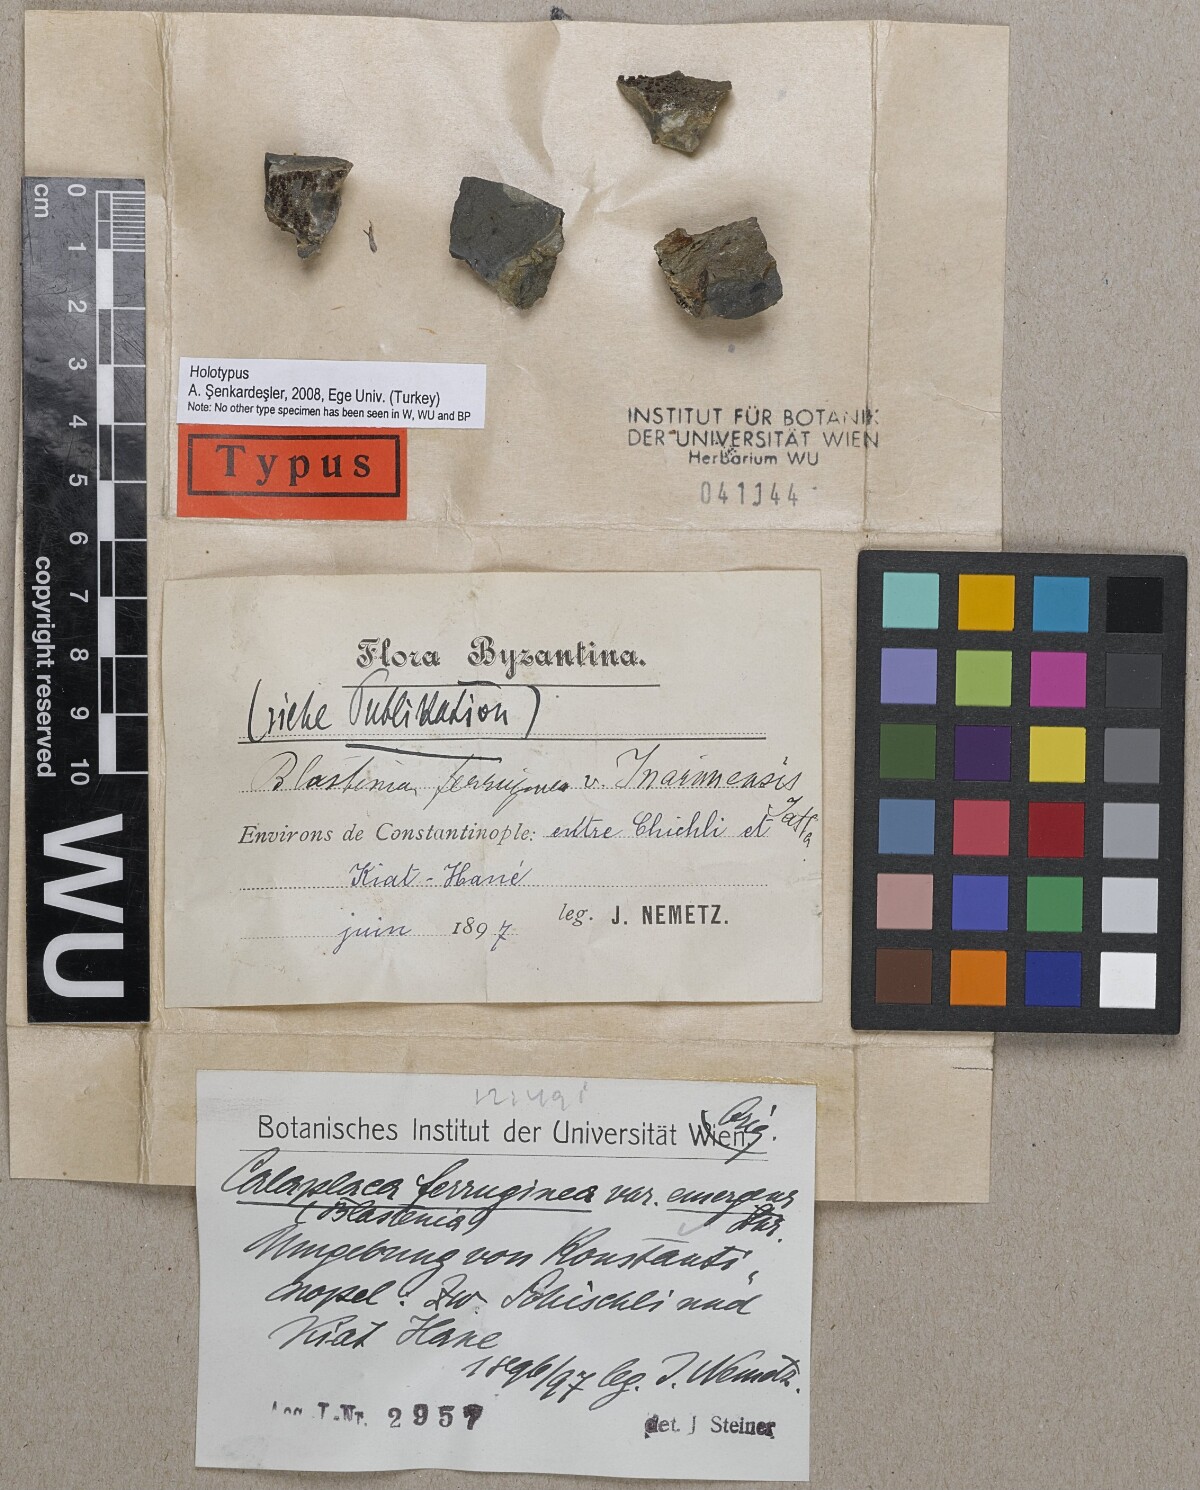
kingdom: Fungi
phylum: Ascomycota
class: Lecanoromycetes
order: Teloschistales
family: Teloschistaceae
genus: Blastenia
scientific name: Blastenia ferruginea
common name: Rusty firedot lichen
